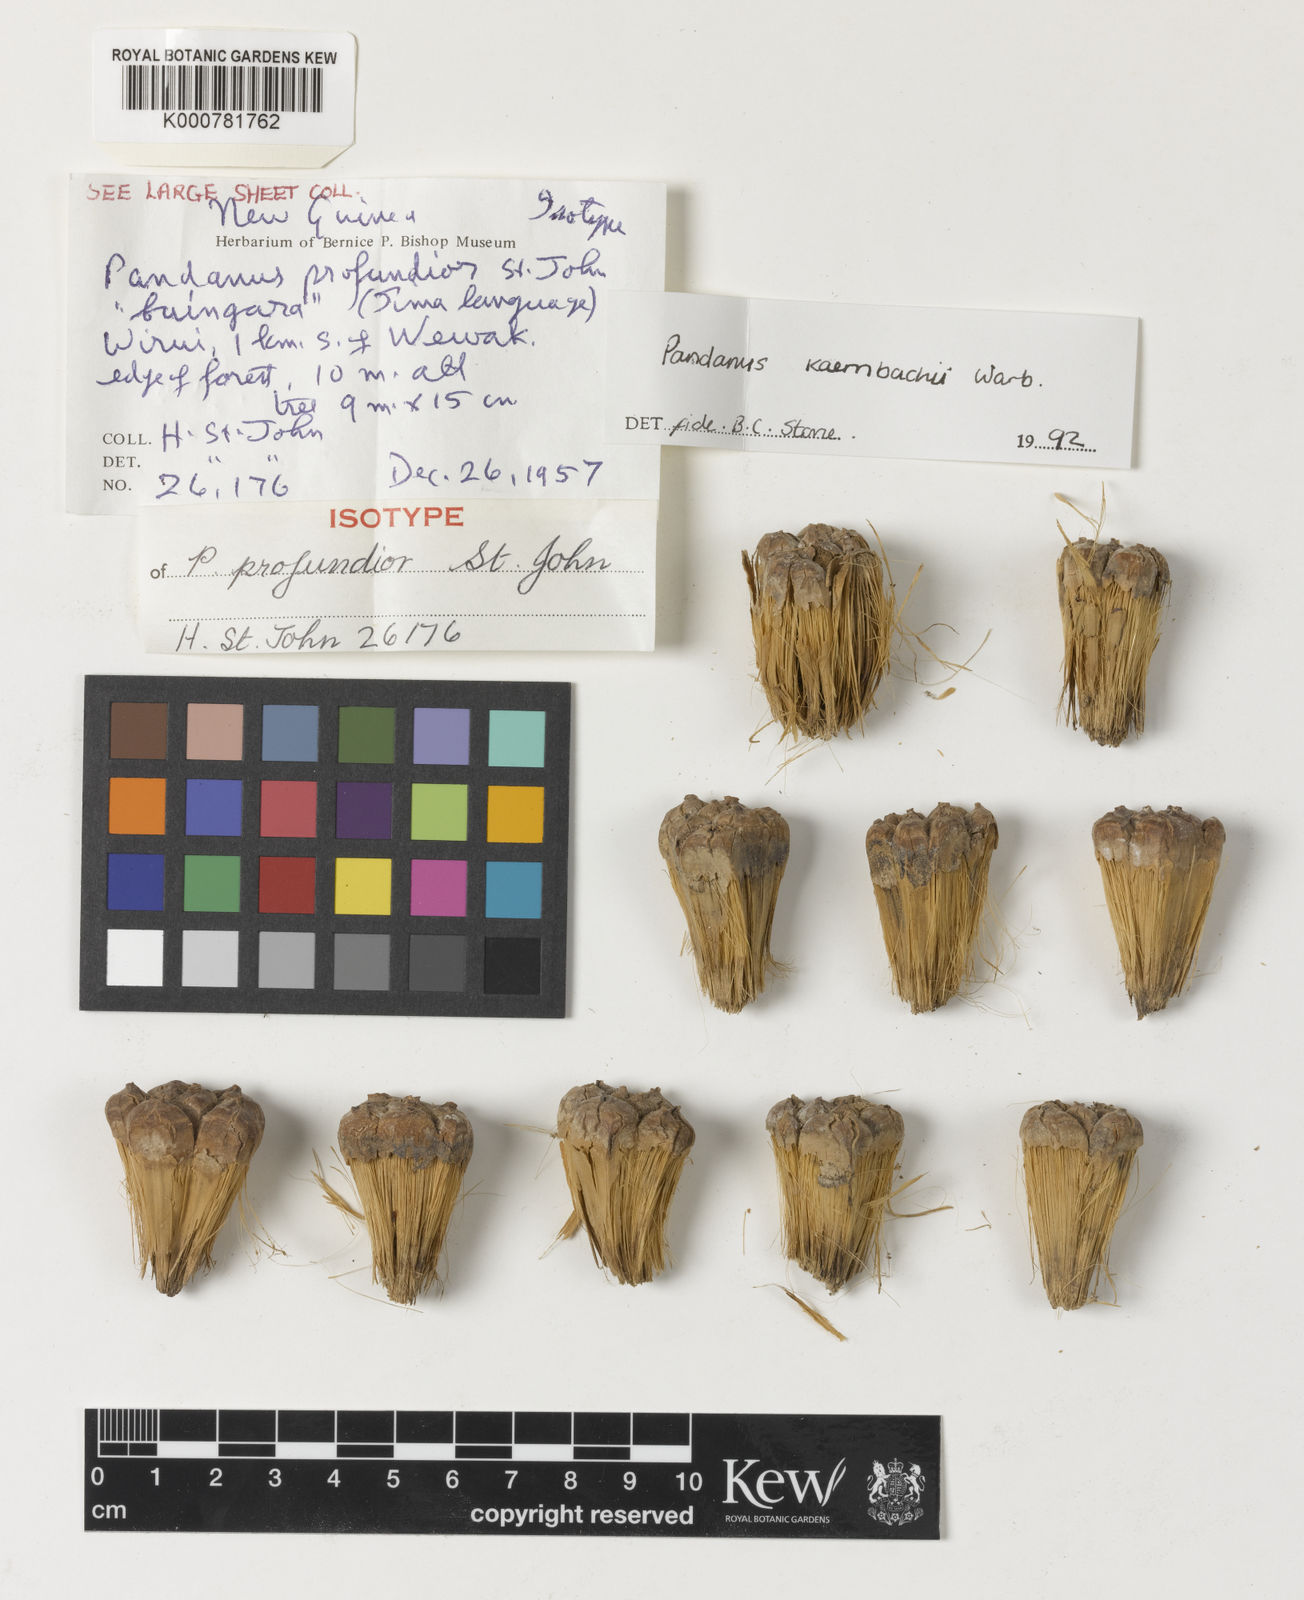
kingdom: Plantae
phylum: Tracheophyta
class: Liliopsida
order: Pandanales
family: Pandanaceae
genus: Pandanus
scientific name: Pandanus kaernbachii
